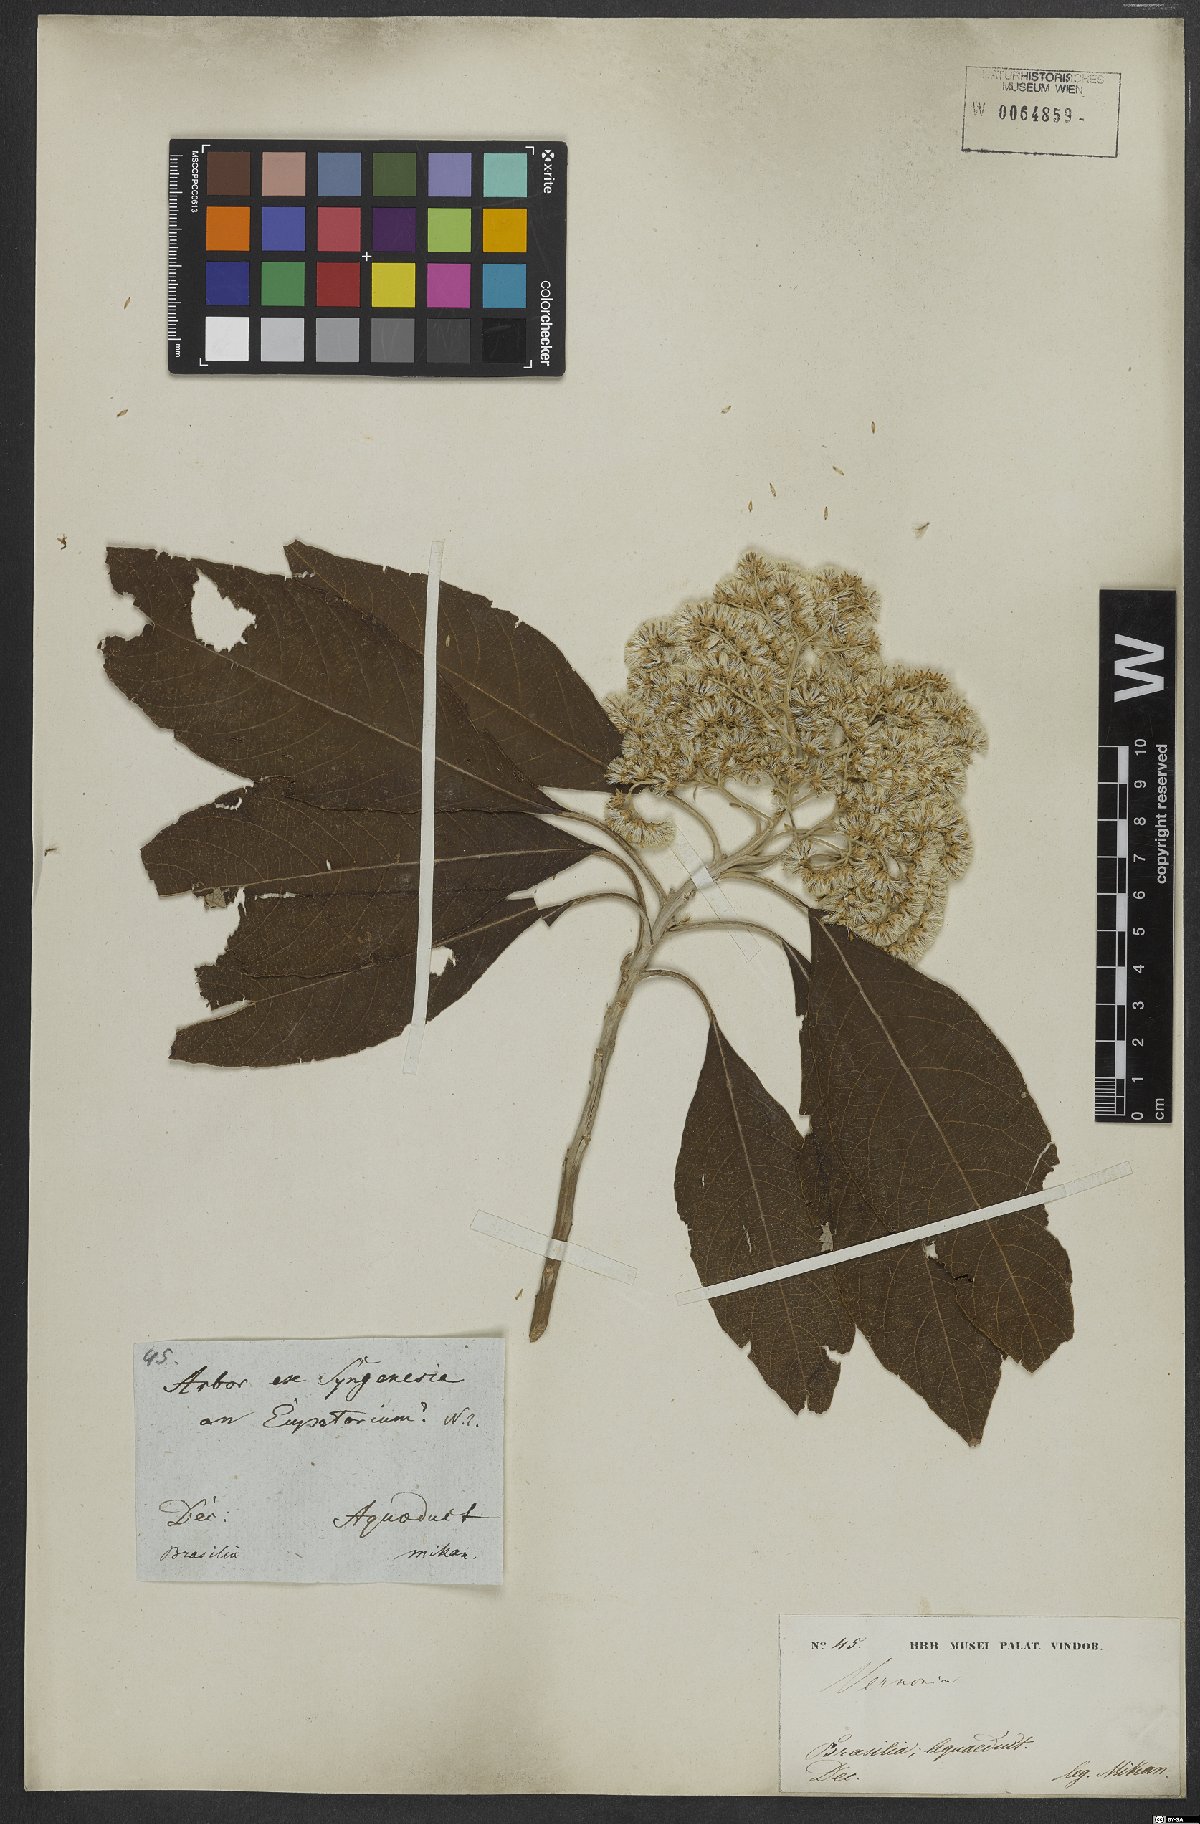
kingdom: Plantae
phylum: Tracheophyta
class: Magnoliopsida
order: Asterales
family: Asteraceae
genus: Vernonanthura
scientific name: Vernonanthura petiolaris
